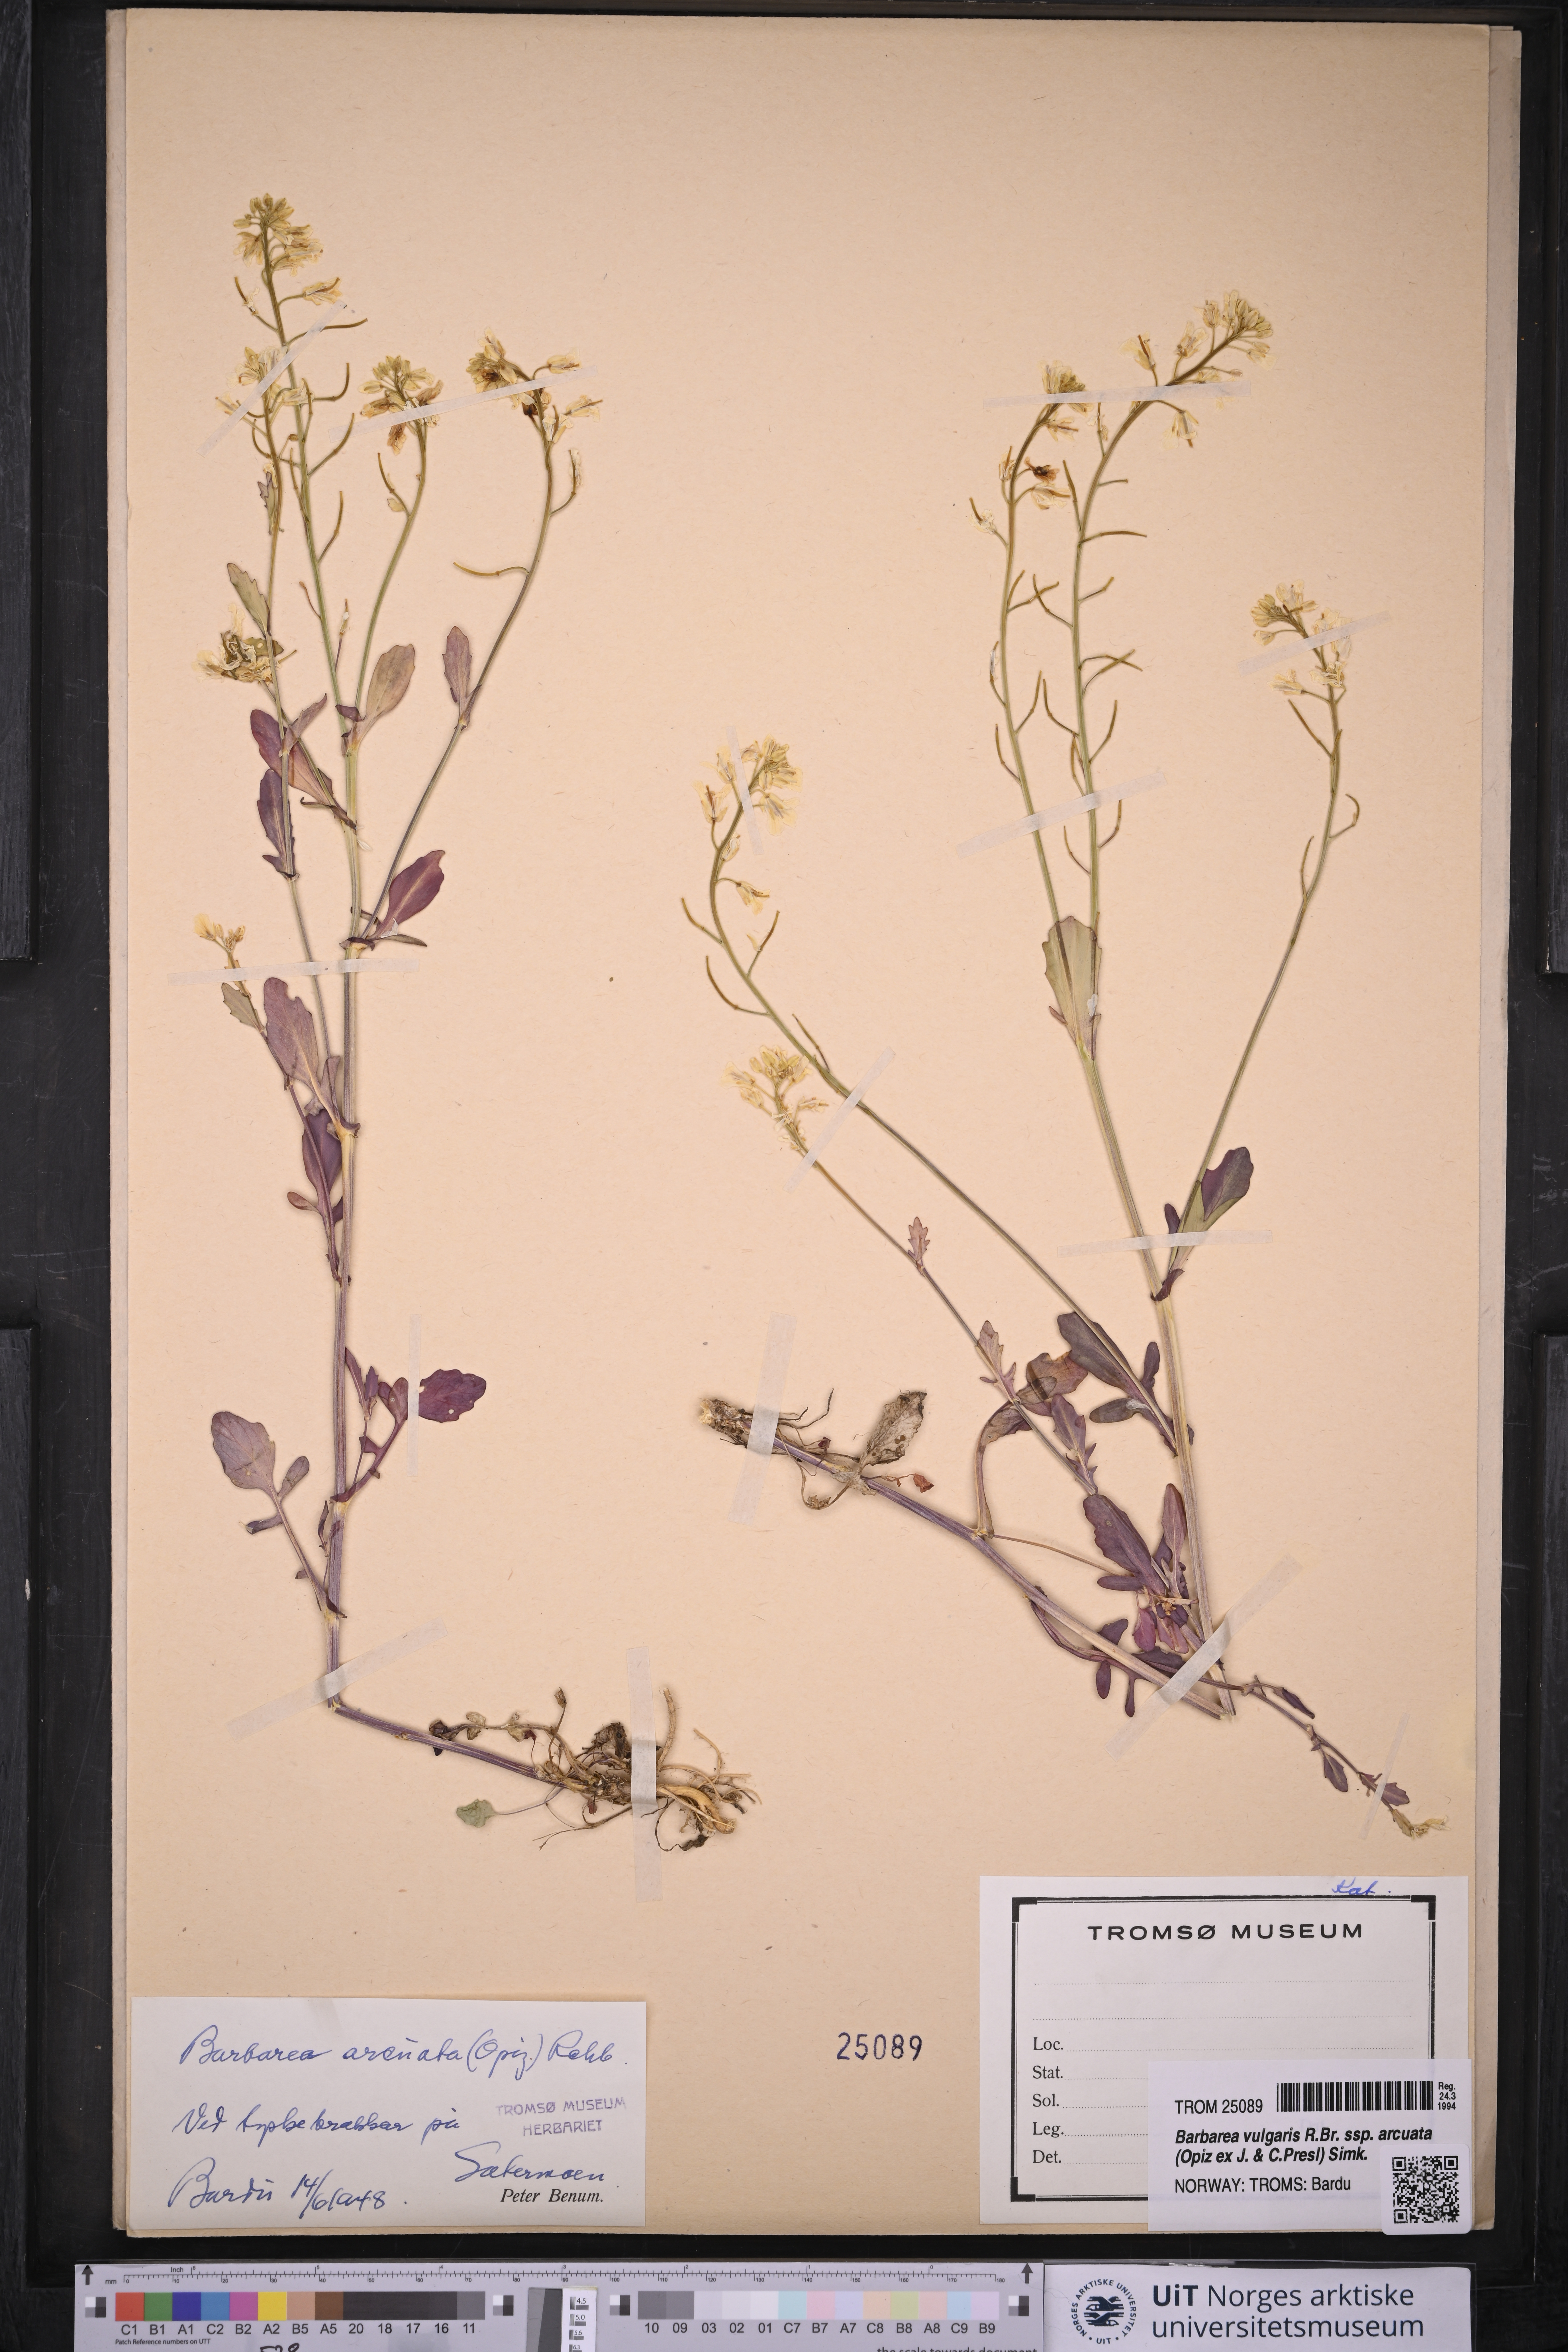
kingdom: Plantae
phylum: Tracheophyta
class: Magnoliopsida
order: Brassicales
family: Brassicaceae
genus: Barbarea
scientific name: Barbarea vulgaris
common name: Cressy-greens
